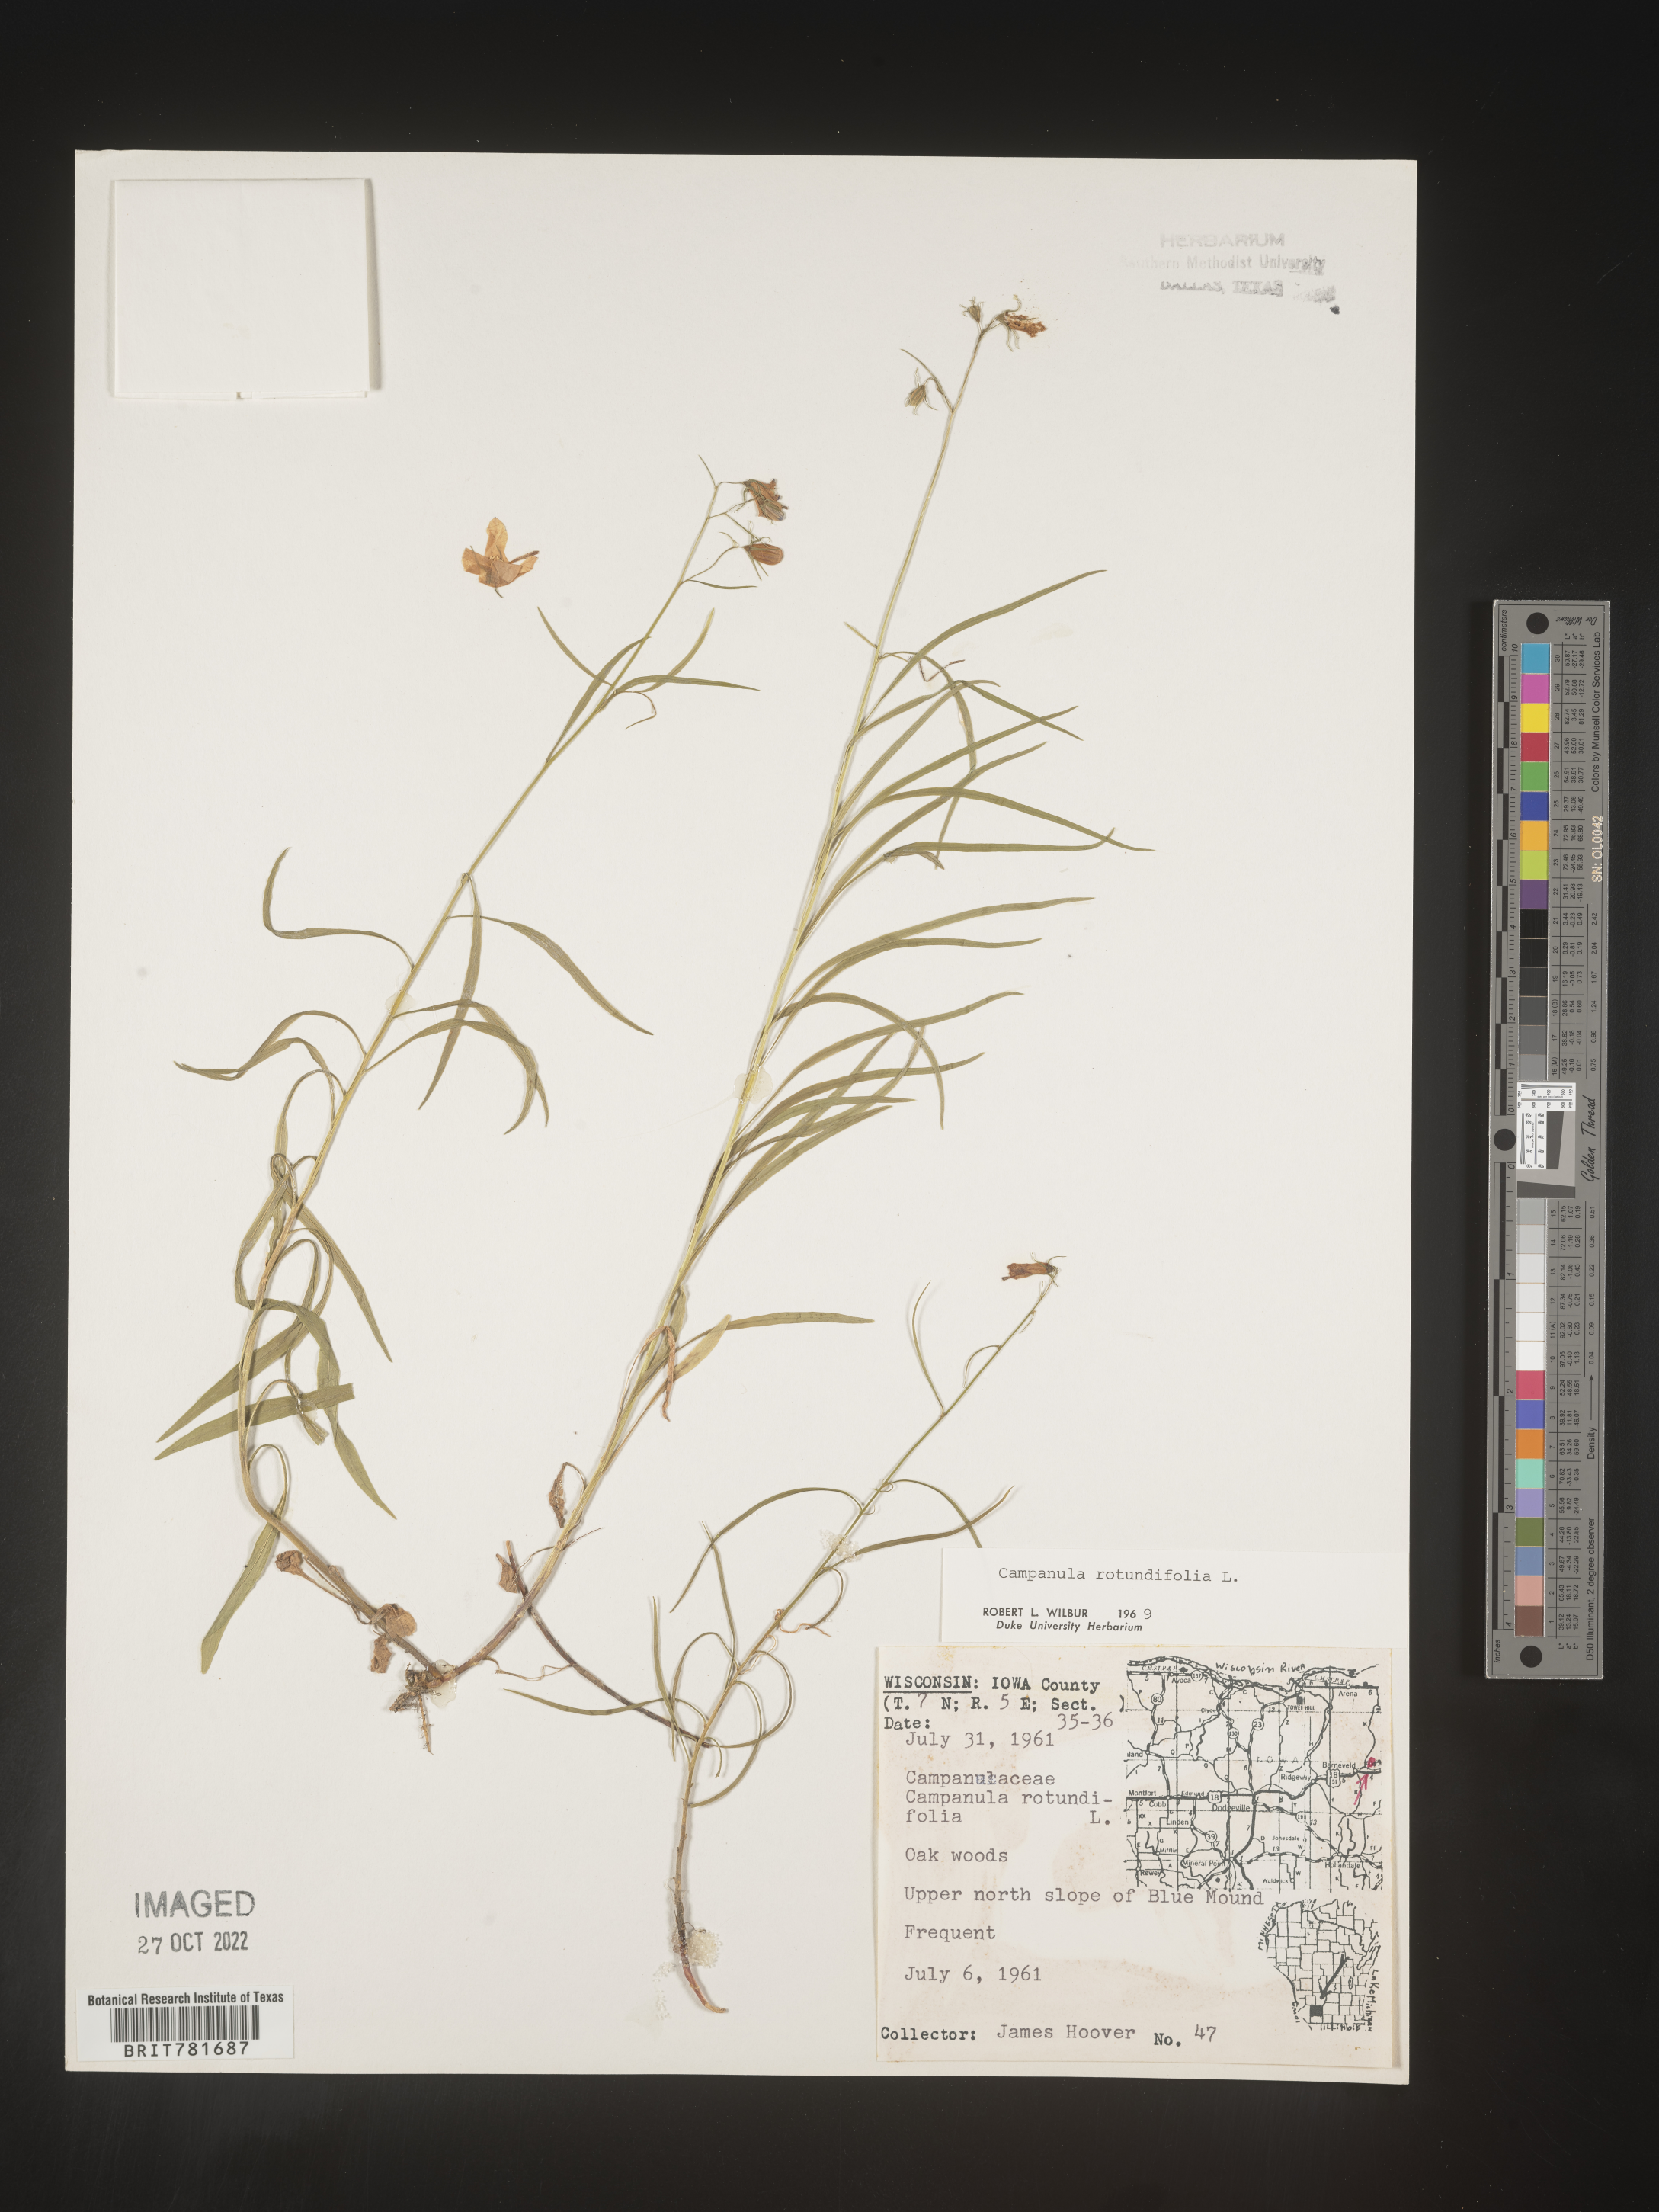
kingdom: Plantae
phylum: Tracheophyta
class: Magnoliopsida
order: Asterales
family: Campanulaceae
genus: Campanula
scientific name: Campanula rotundifolia
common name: Harebell
